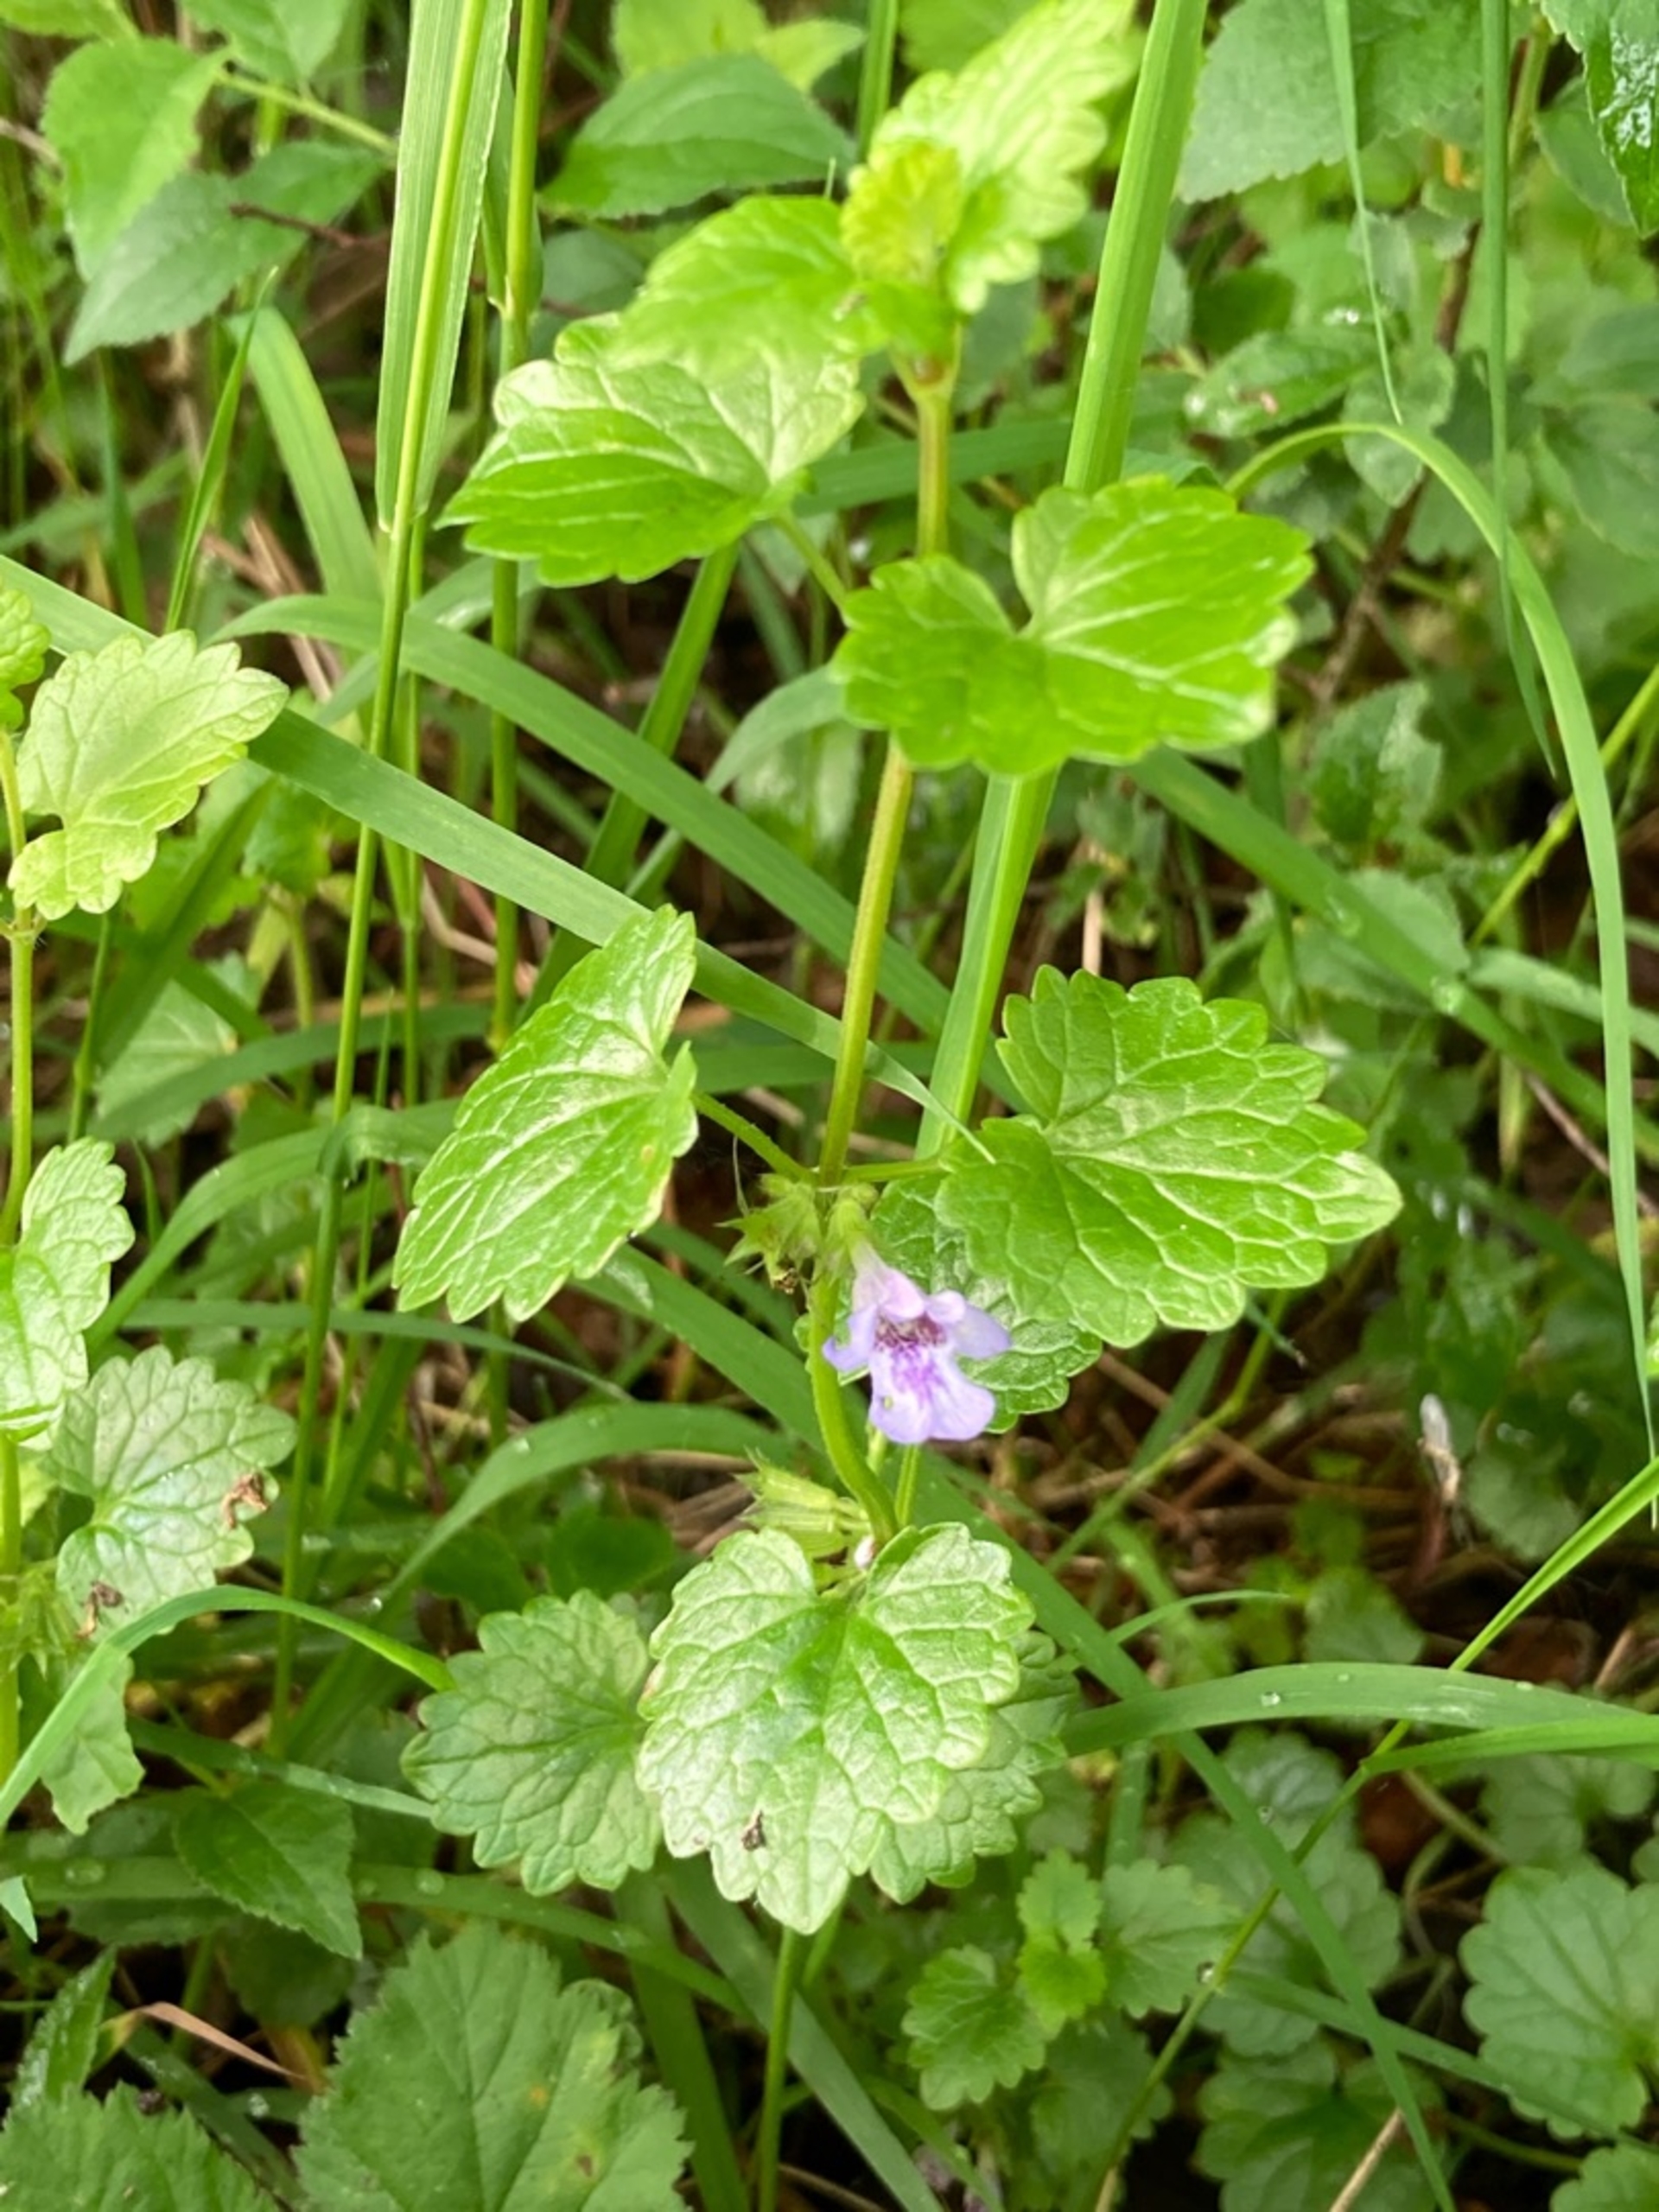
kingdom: Plantae
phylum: Tracheophyta
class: Magnoliopsida
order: Lamiales
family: Lamiaceae
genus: Glechoma
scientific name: Glechoma hederacea
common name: Korsknap
